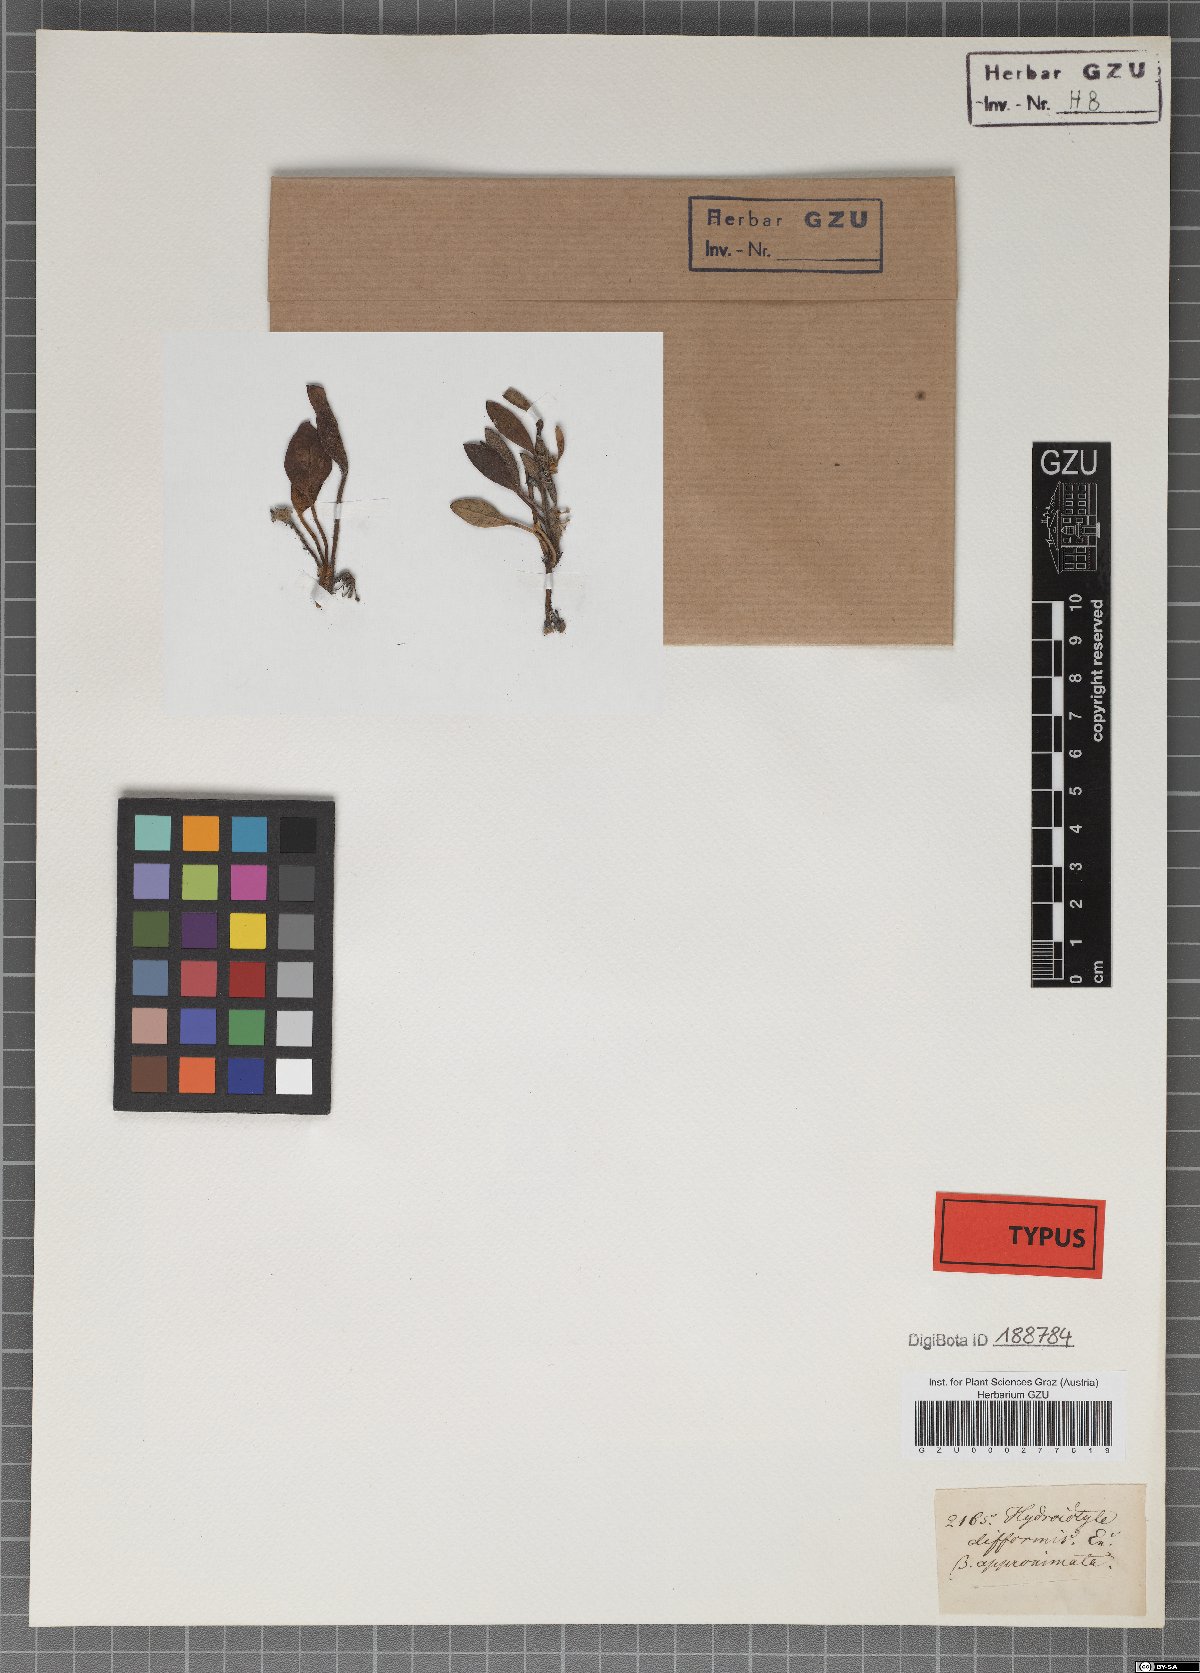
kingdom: Plantae
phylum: Tracheophyta
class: Magnoliopsida
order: Apiales
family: Apiaceae
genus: Centella
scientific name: Centella difformis
